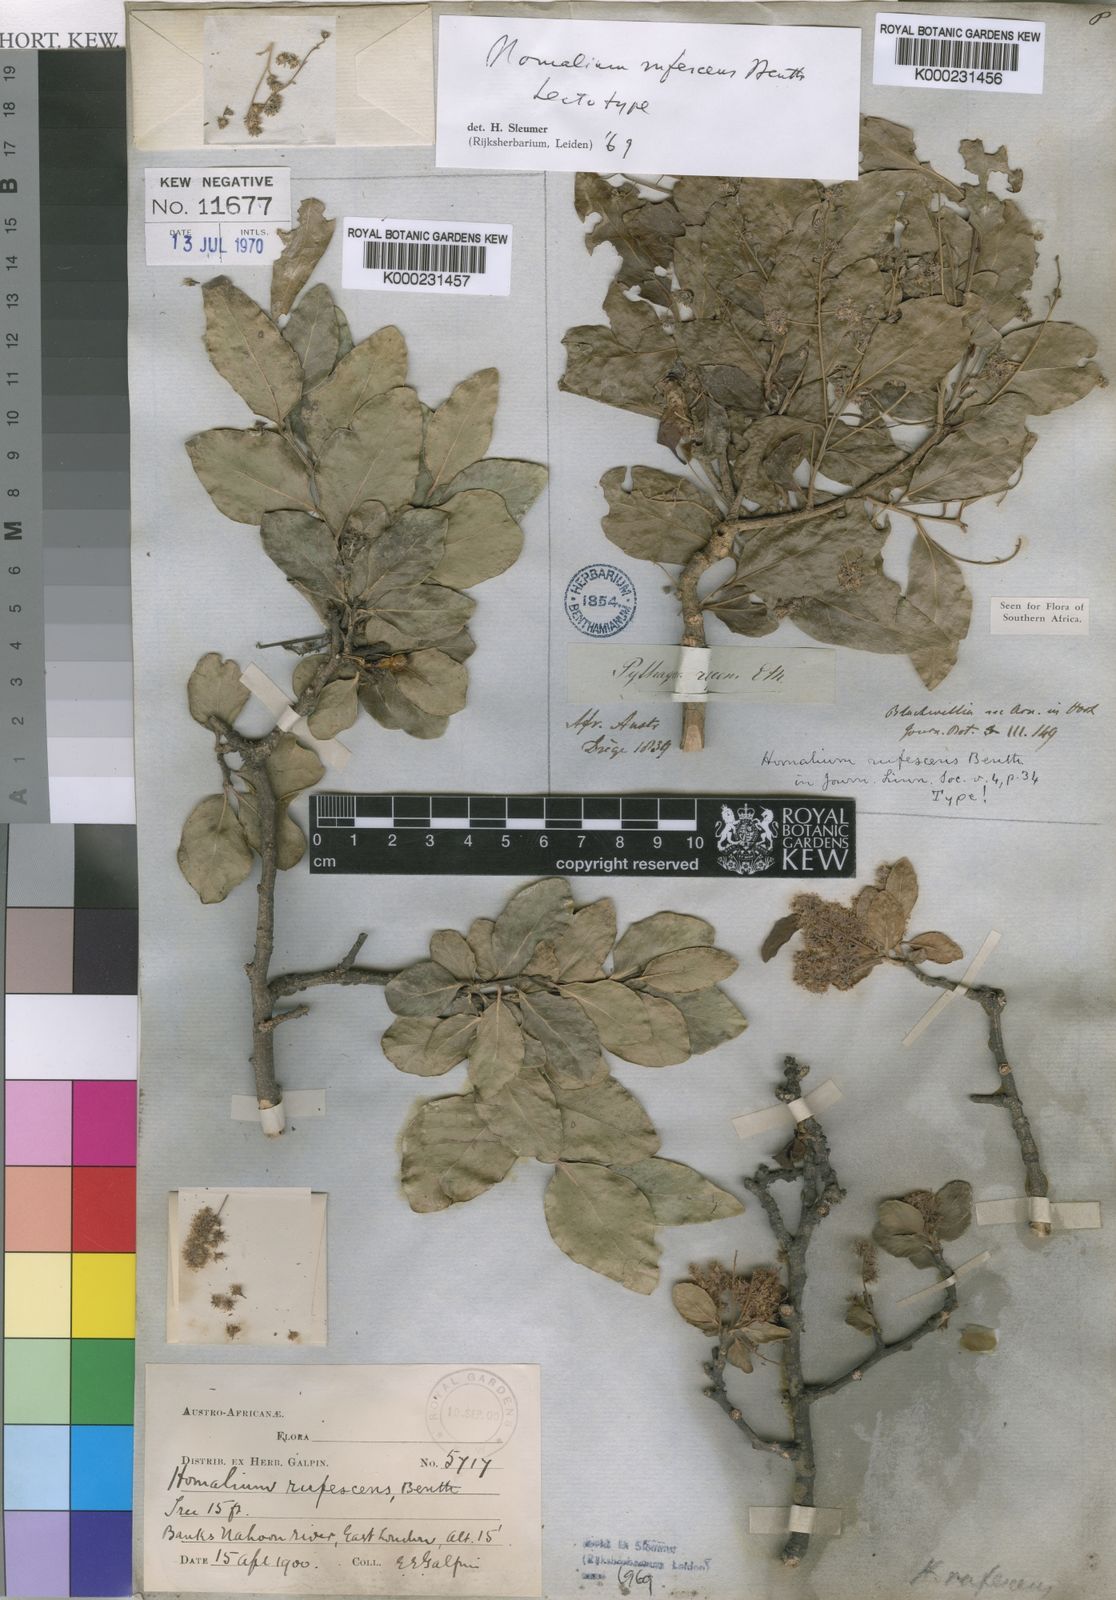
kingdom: Plantae
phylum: Tracheophyta
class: Magnoliopsida
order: Malpighiales
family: Salicaceae
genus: Homalium
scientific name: Homalium
